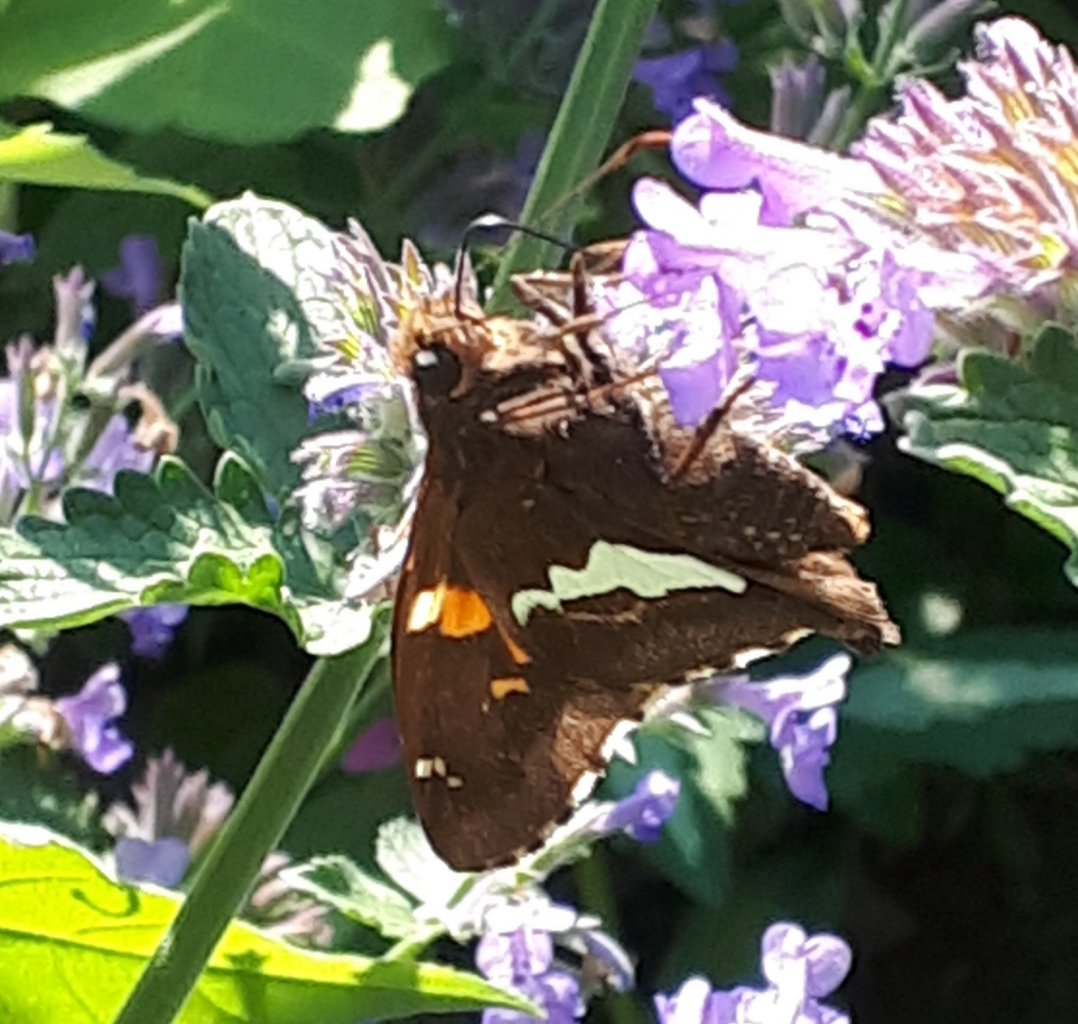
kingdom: Animalia
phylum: Arthropoda
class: Insecta
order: Lepidoptera
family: Hesperiidae
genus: Epargyreus
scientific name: Epargyreus clarus
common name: Silver-spotted Skipper
